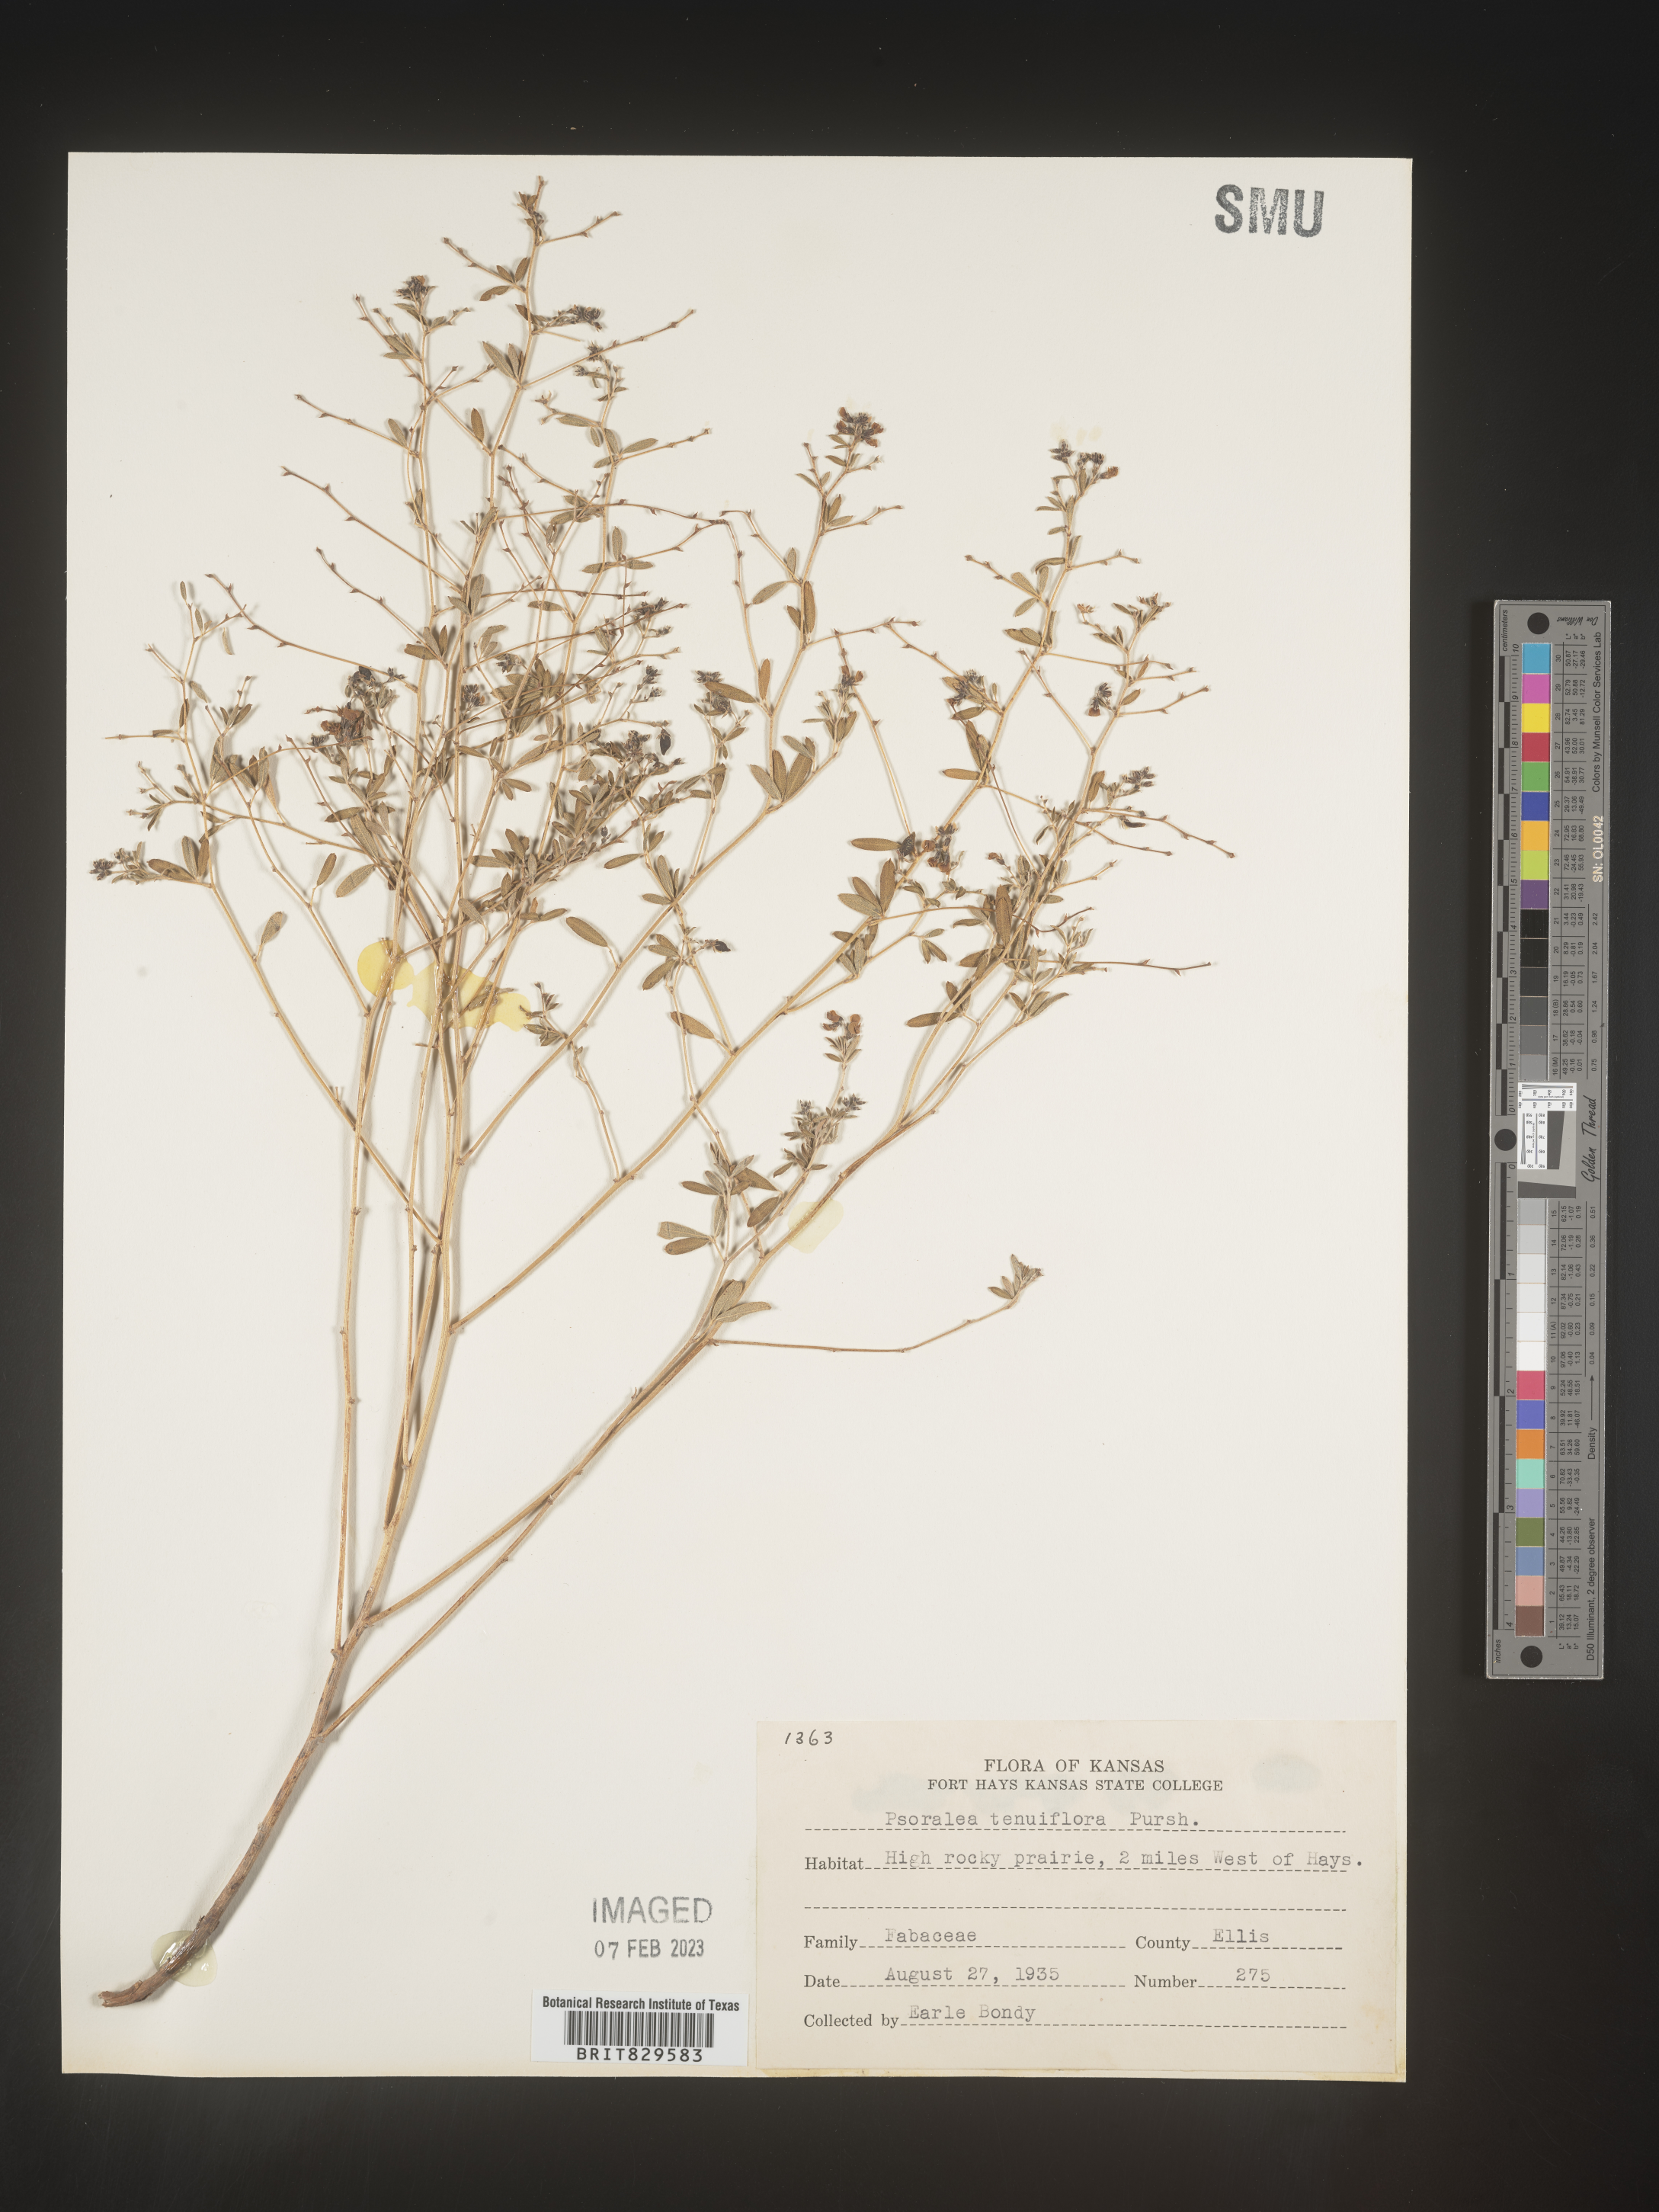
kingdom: Plantae
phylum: Tracheophyta
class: Magnoliopsida
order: Fabales
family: Fabaceae
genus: Pediomelum
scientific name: Pediomelum tenuiflorum
